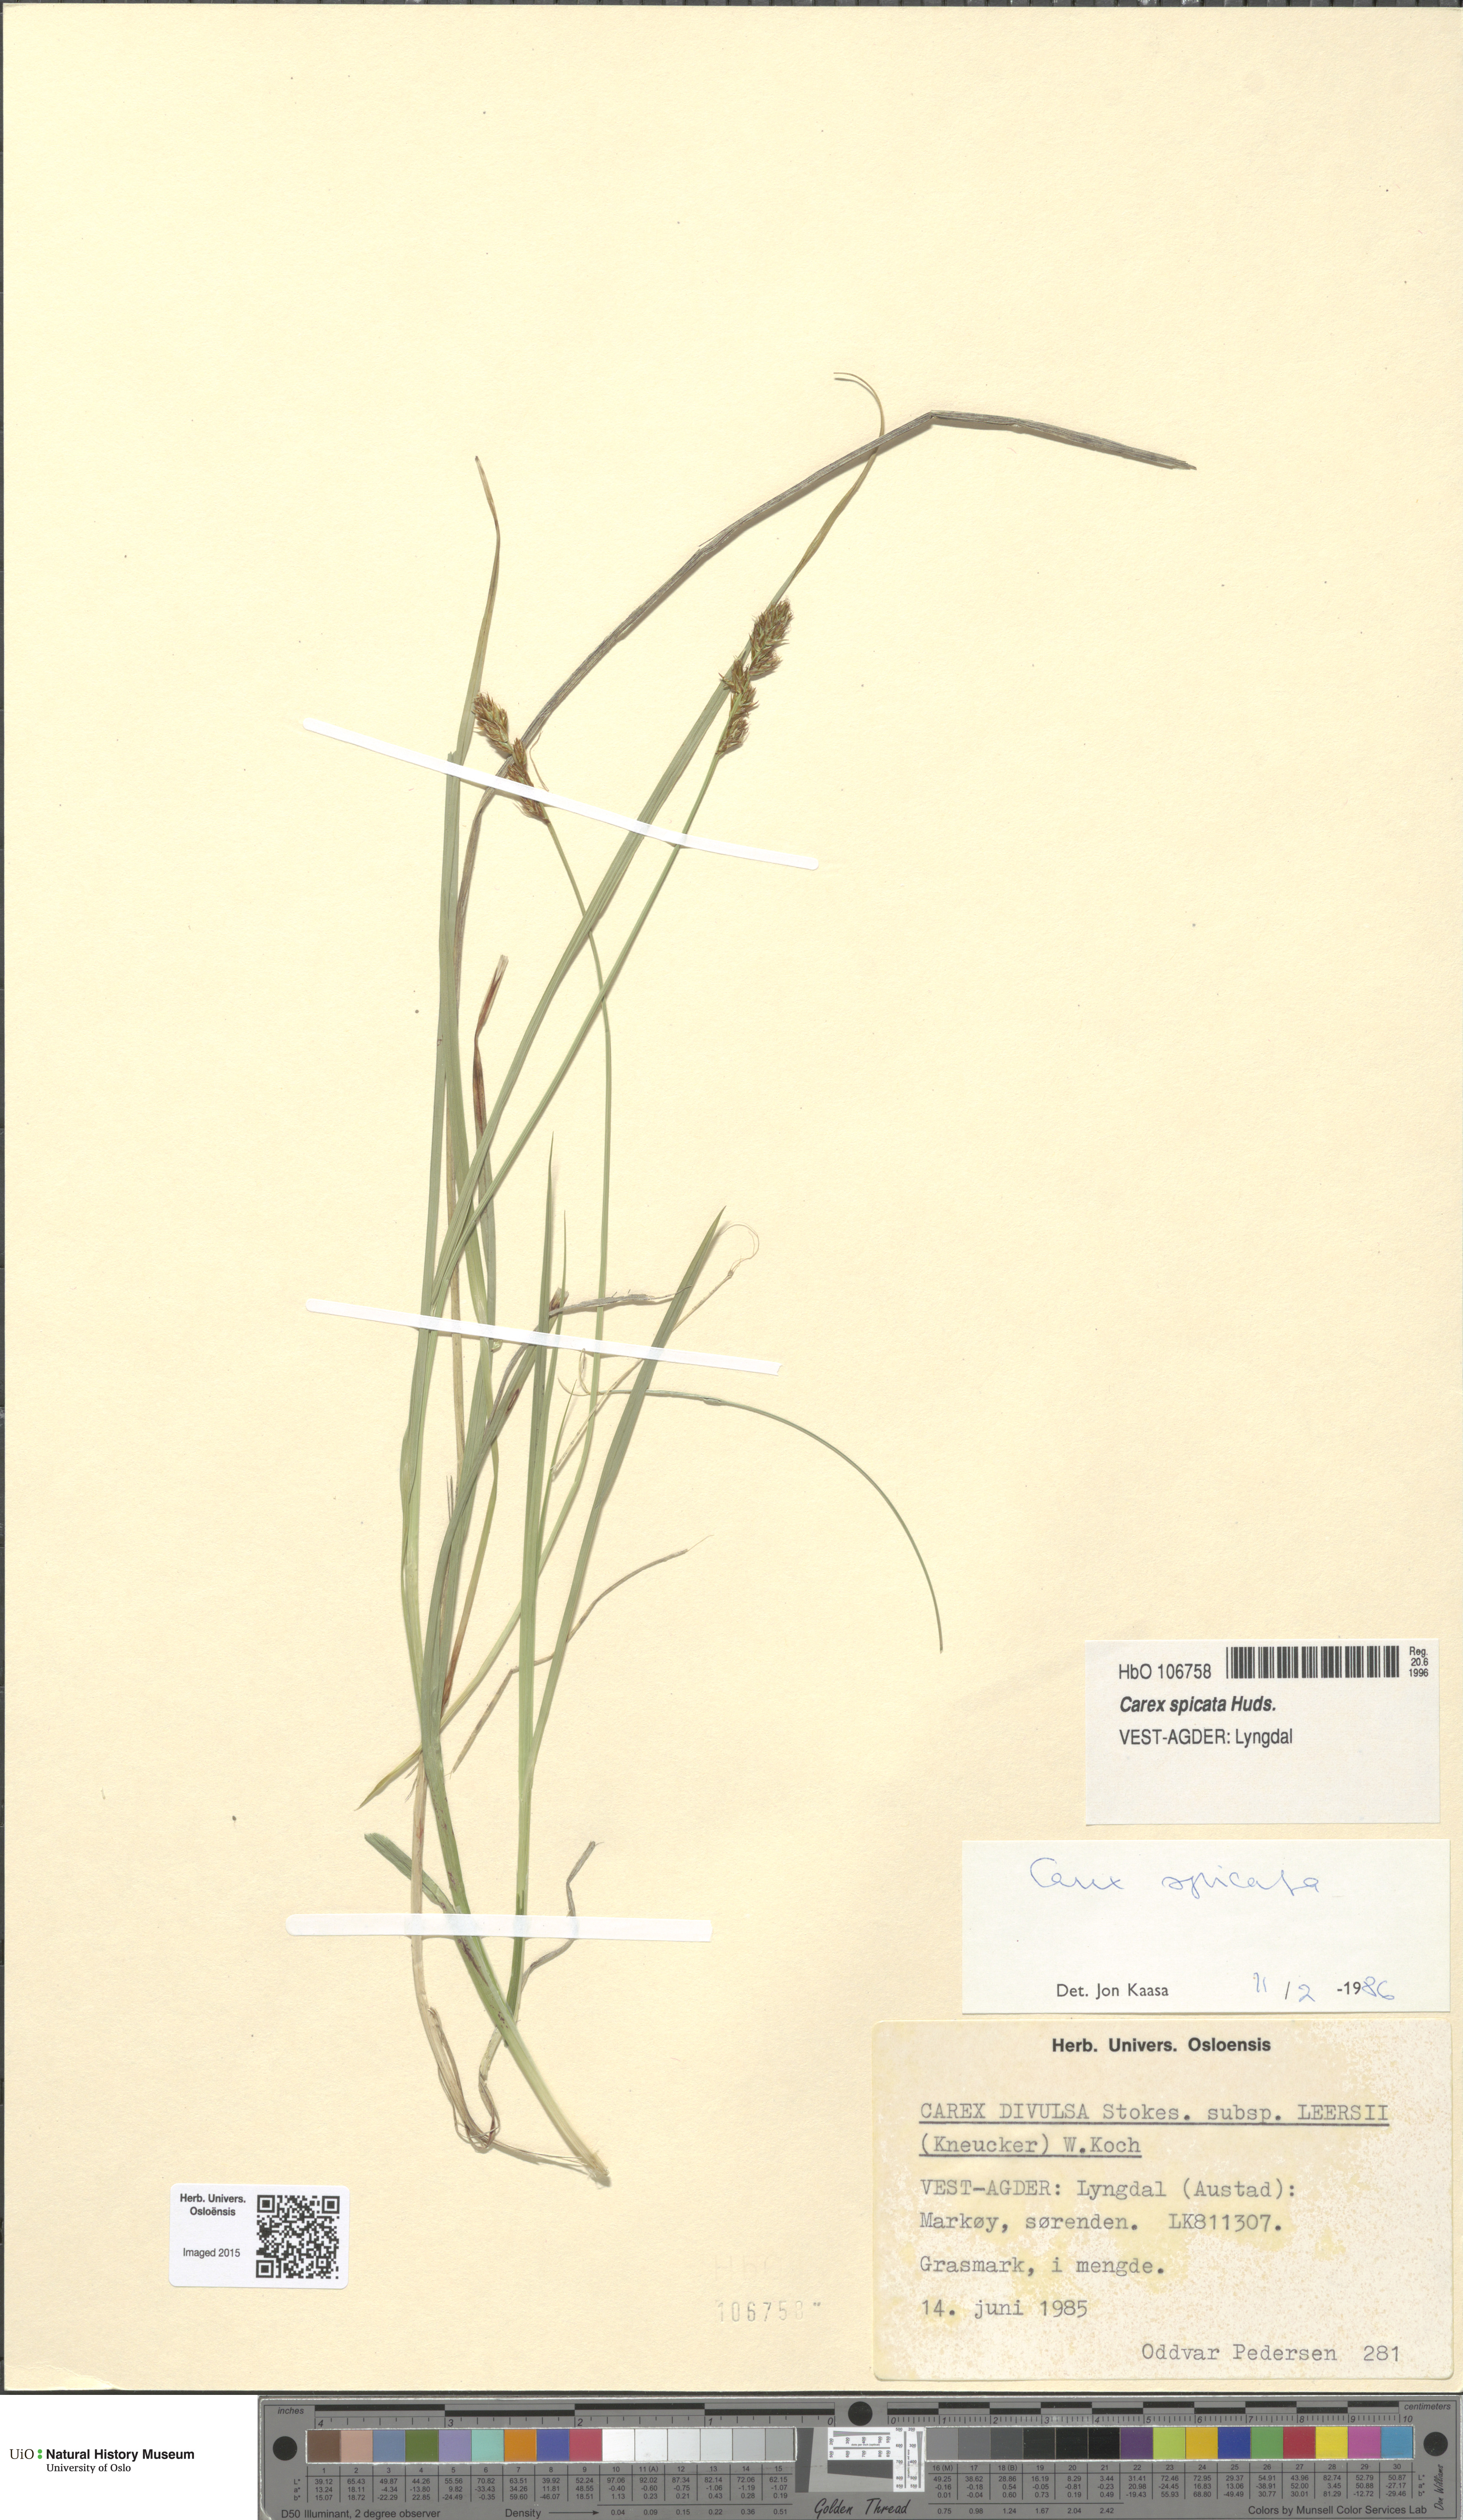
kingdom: Plantae
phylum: Tracheophyta
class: Liliopsida
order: Poales
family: Cyperaceae
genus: Carex
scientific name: Carex spicata
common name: Spiked sedge
